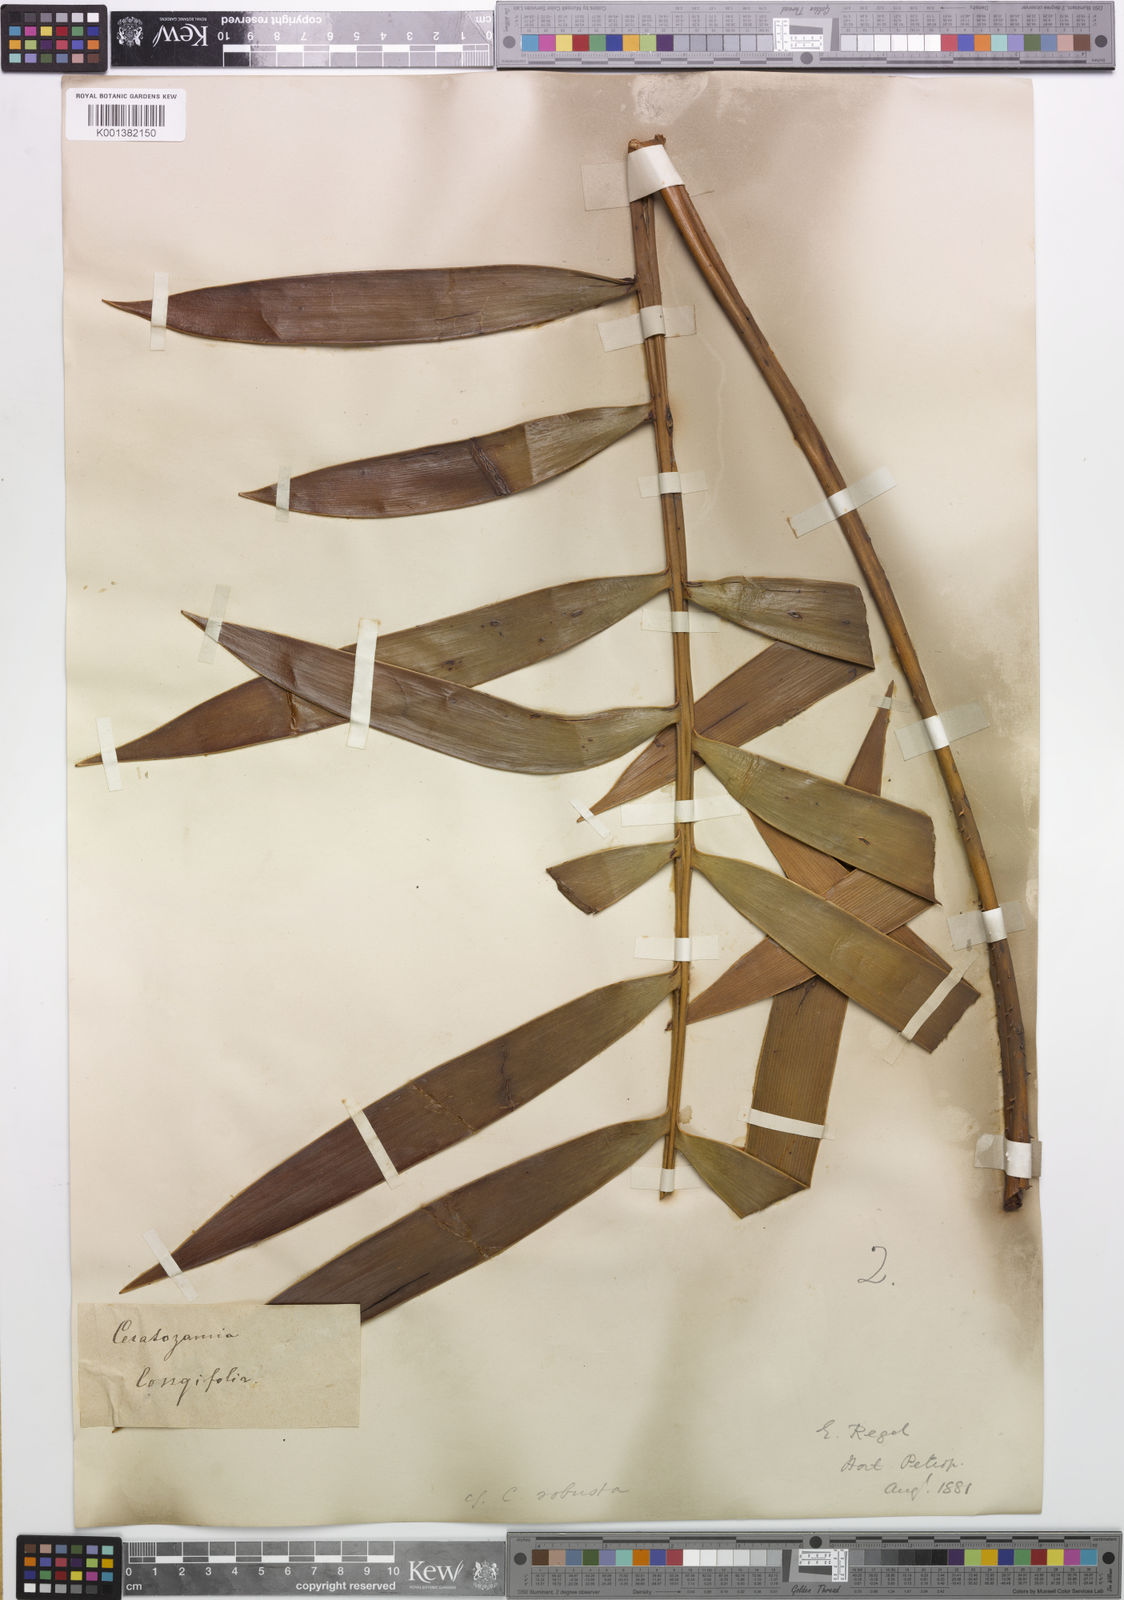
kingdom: Plantae
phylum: Tracheophyta
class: Cycadopsida
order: Cycadales
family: Zamiaceae
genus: Ceratozamia
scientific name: Ceratozamia robusta
